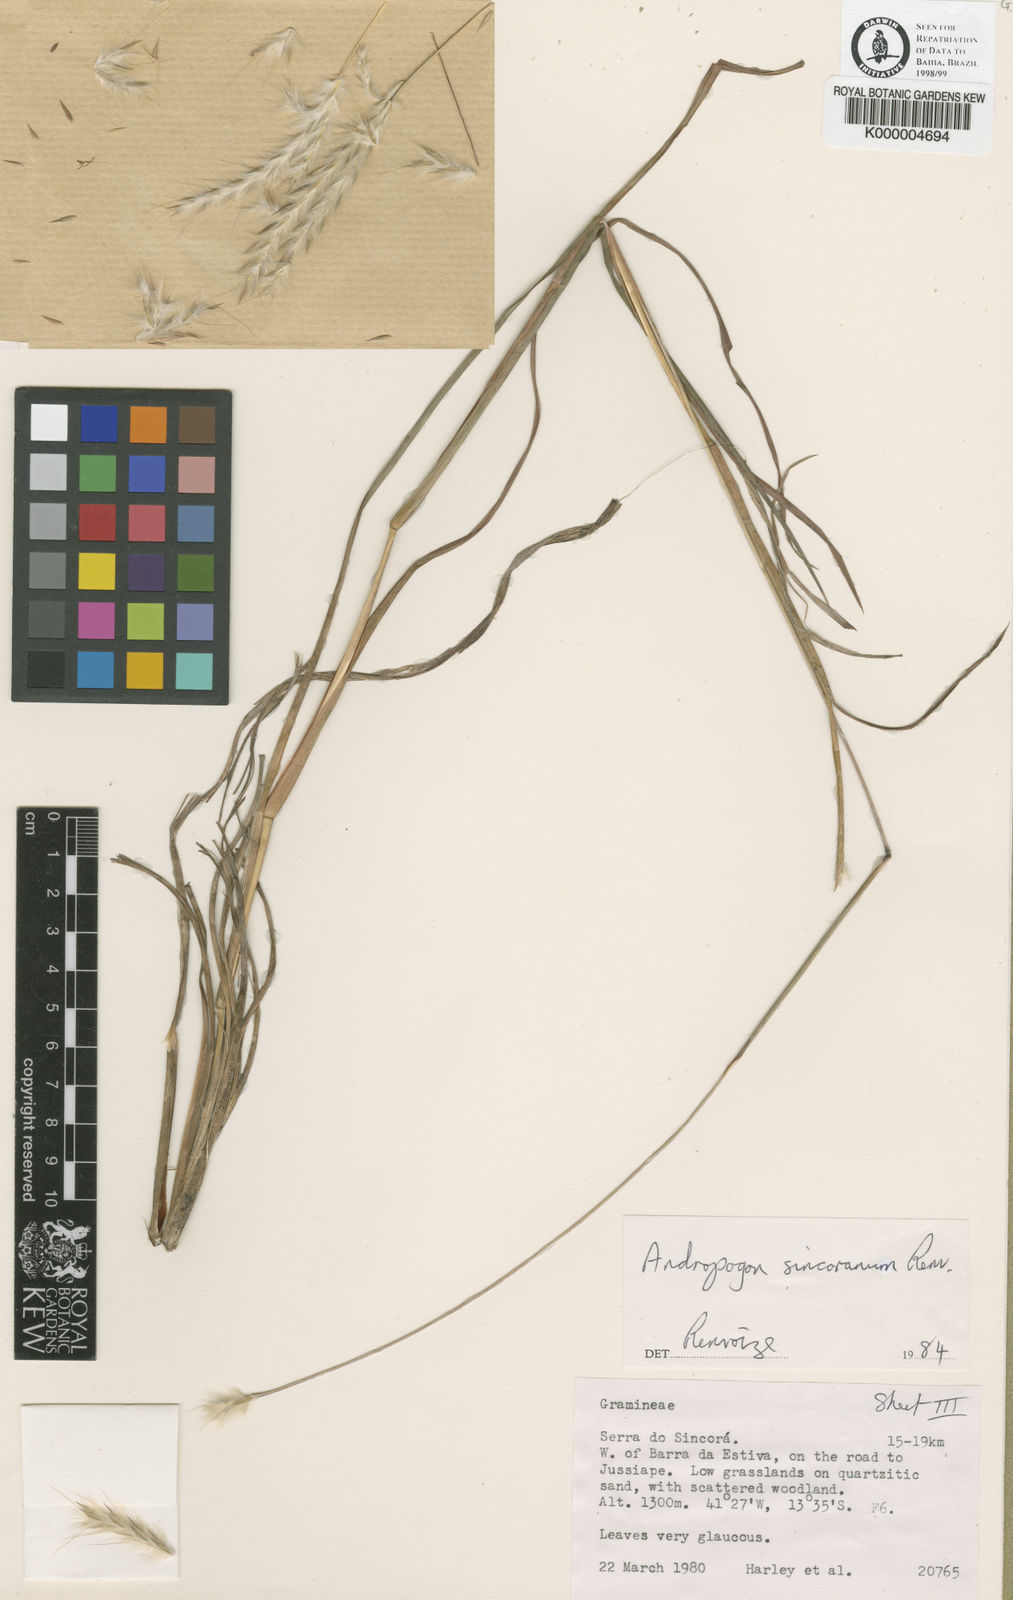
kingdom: Plantae
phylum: Tracheophyta
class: Liliopsida
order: Poales
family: Poaceae
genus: Andropogon
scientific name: Andropogon ingratus
